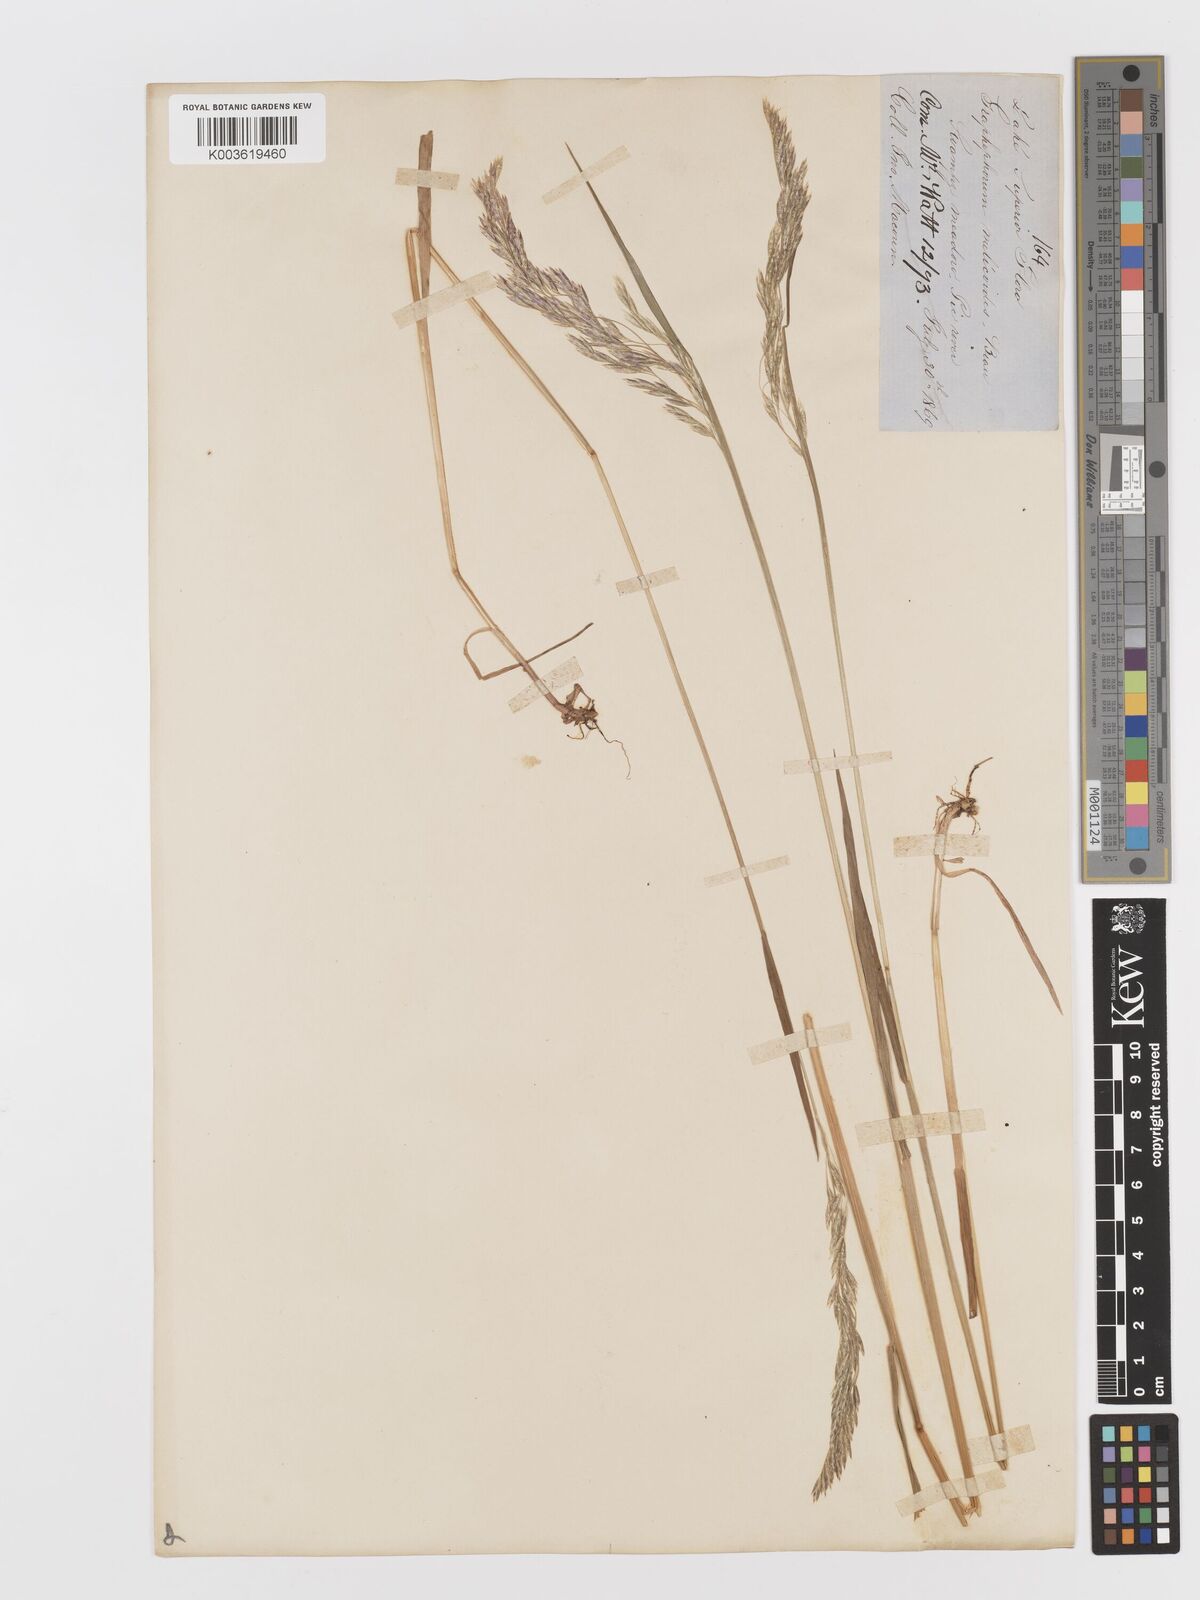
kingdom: Plantae
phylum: Tracheophyta
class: Liliopsida
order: Poales
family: Poaceae
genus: Graphephorum
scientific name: Graphephorum melicoides
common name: False melic
